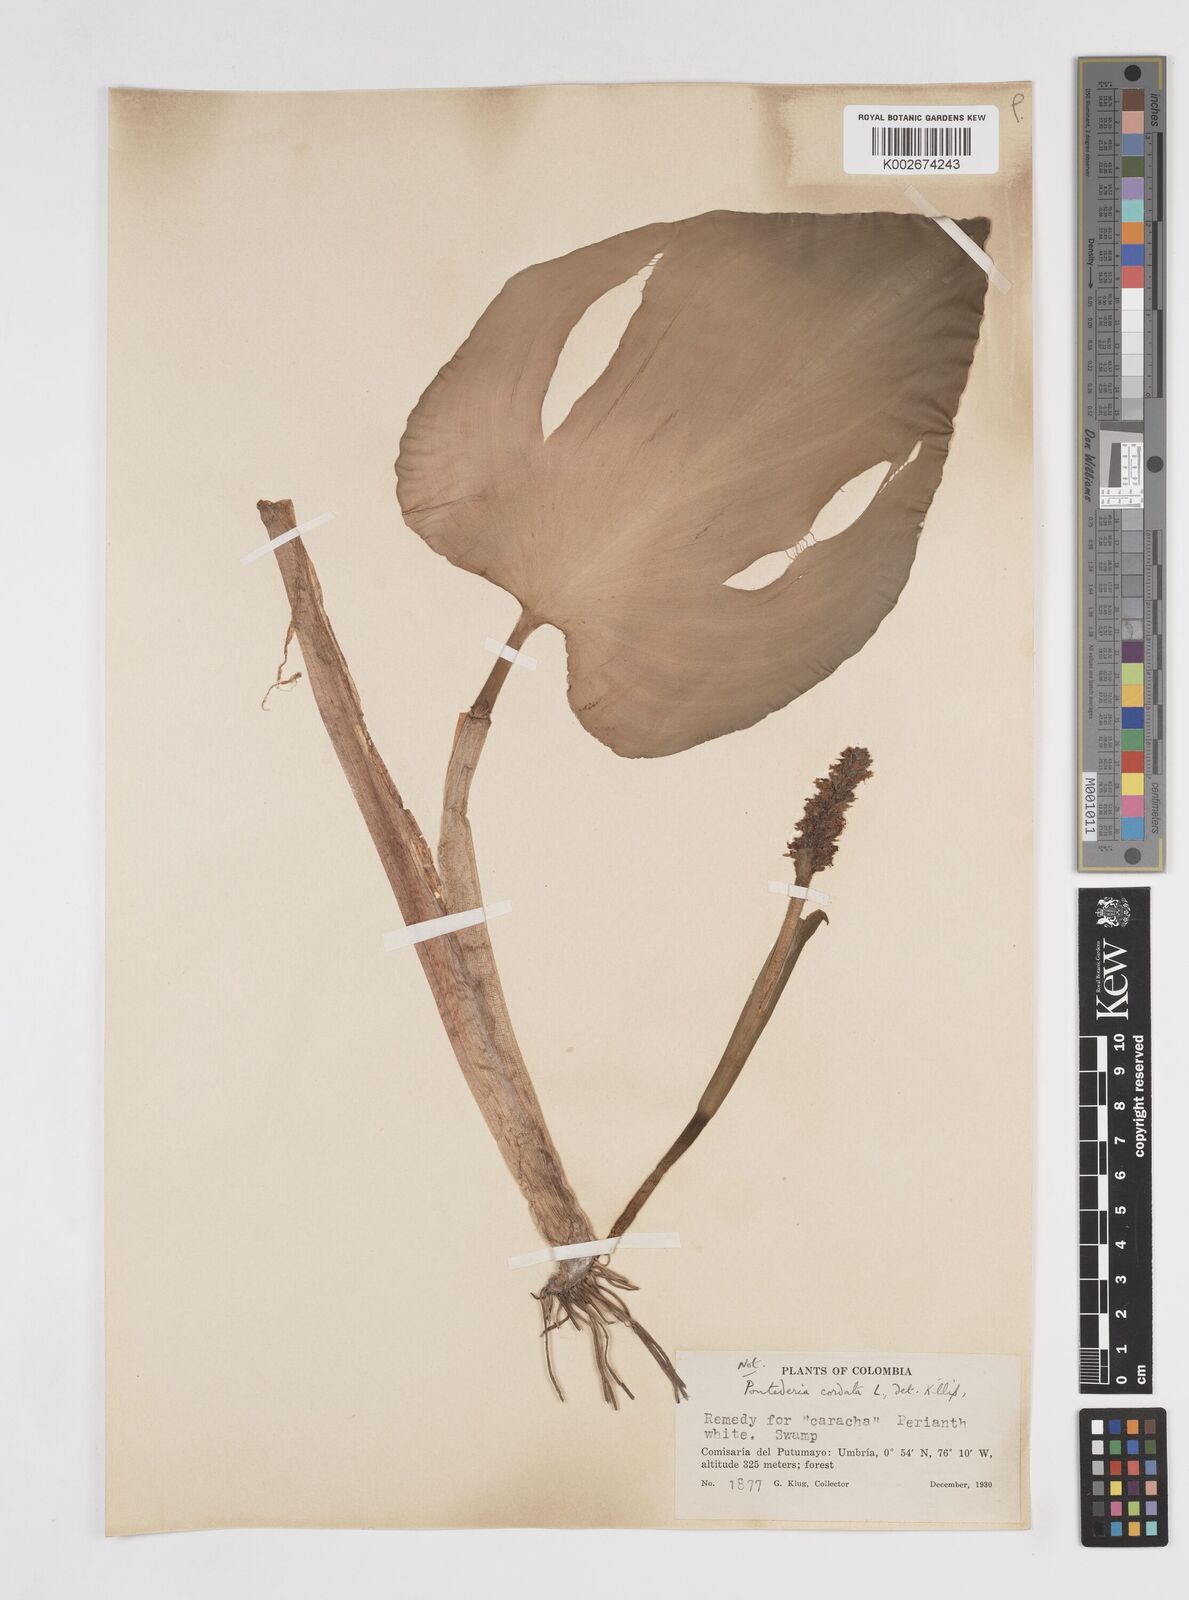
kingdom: Plantae
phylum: Tracheophyta
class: Liliopsida
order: Commelinales
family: Pontederiaceae
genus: Pontederia
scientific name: Pontederia parviflora
